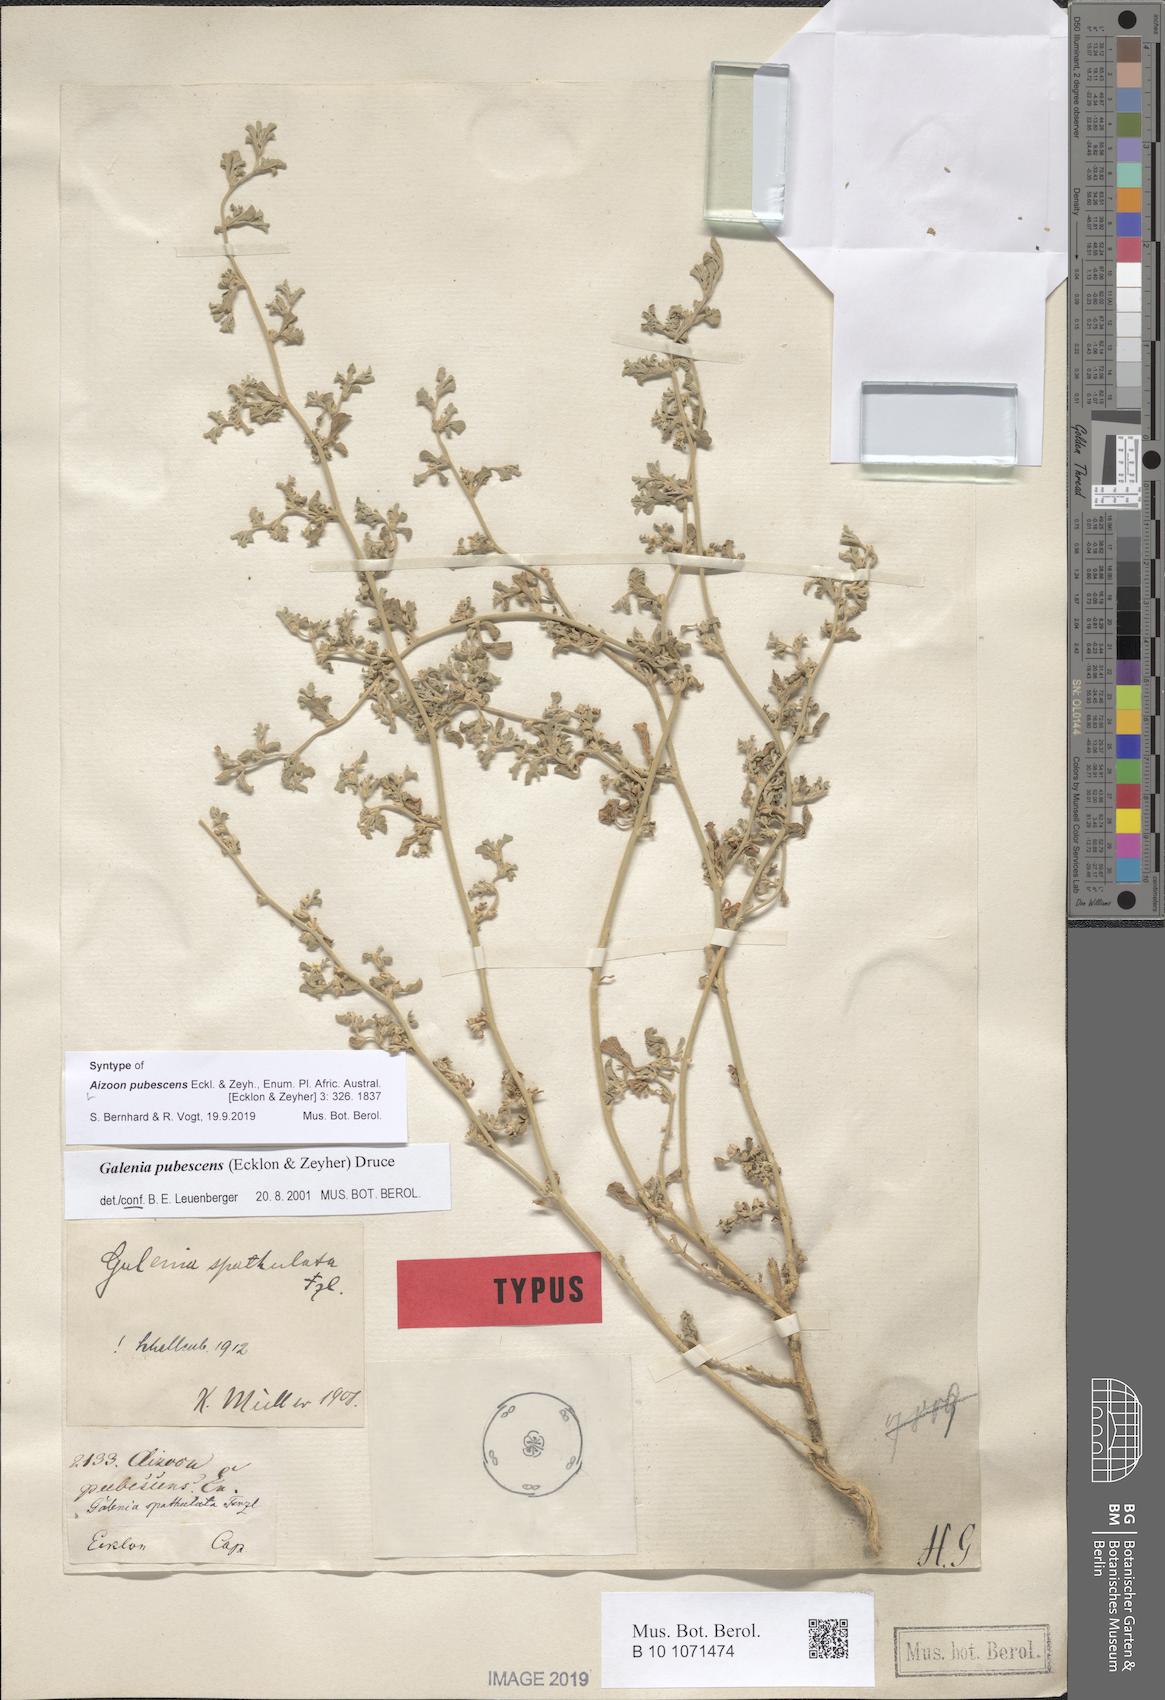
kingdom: Plantae
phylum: Tracheophyta
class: Magnoliopsida
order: Caryophyllales
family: Aizoaceae
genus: Aizoon
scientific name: Aizoon pubescens
